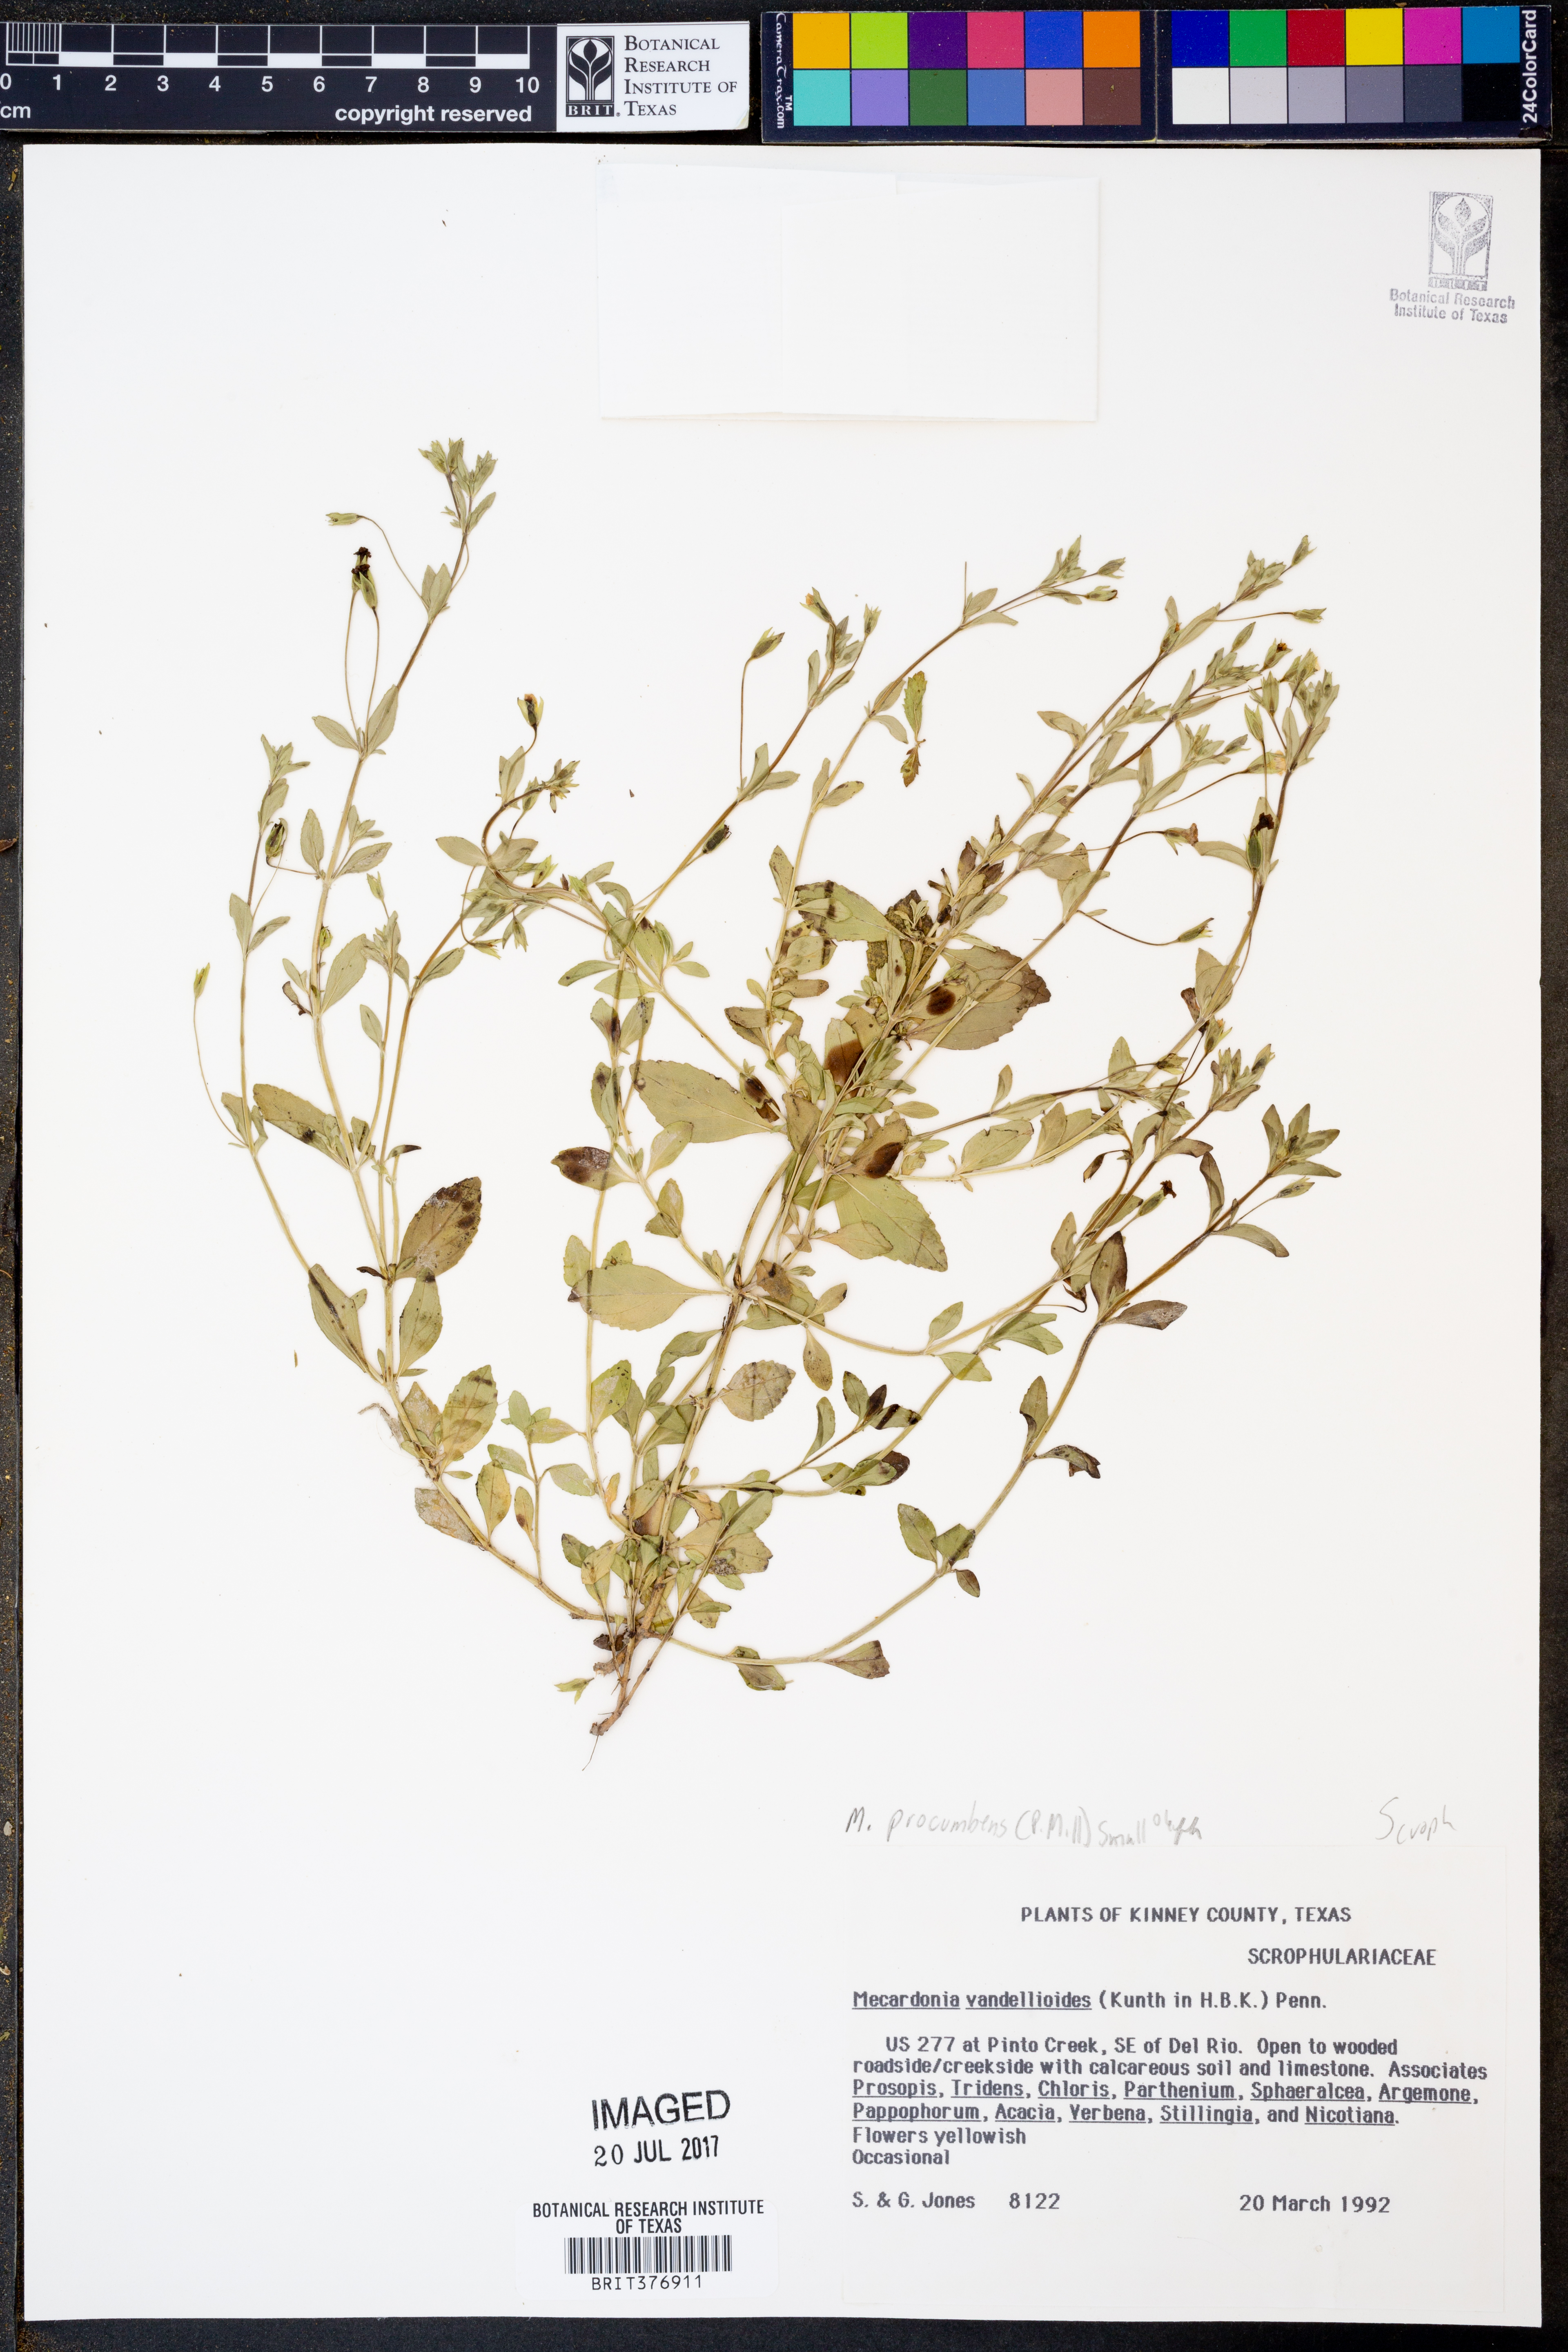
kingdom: Plantae
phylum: Tracheophyta
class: Magnoliopsida
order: Lamiales
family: Plantaginaceae
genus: Mecardonia
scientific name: Mecardonia procumbens
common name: Baby jump-up
